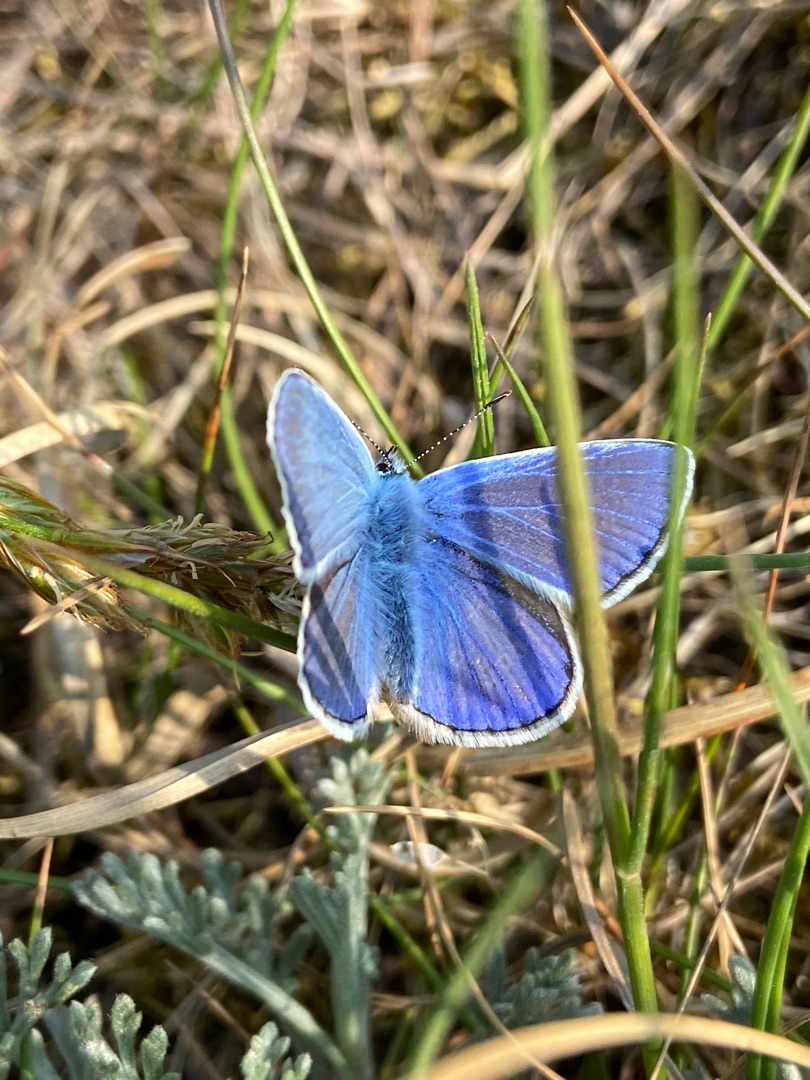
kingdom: Animalia
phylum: Arthropoda
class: Insecta
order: Lepidoptera
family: Lycaenidae
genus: Polyommatus
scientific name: Polyommatus icarus
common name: Almindelig blåfugl
